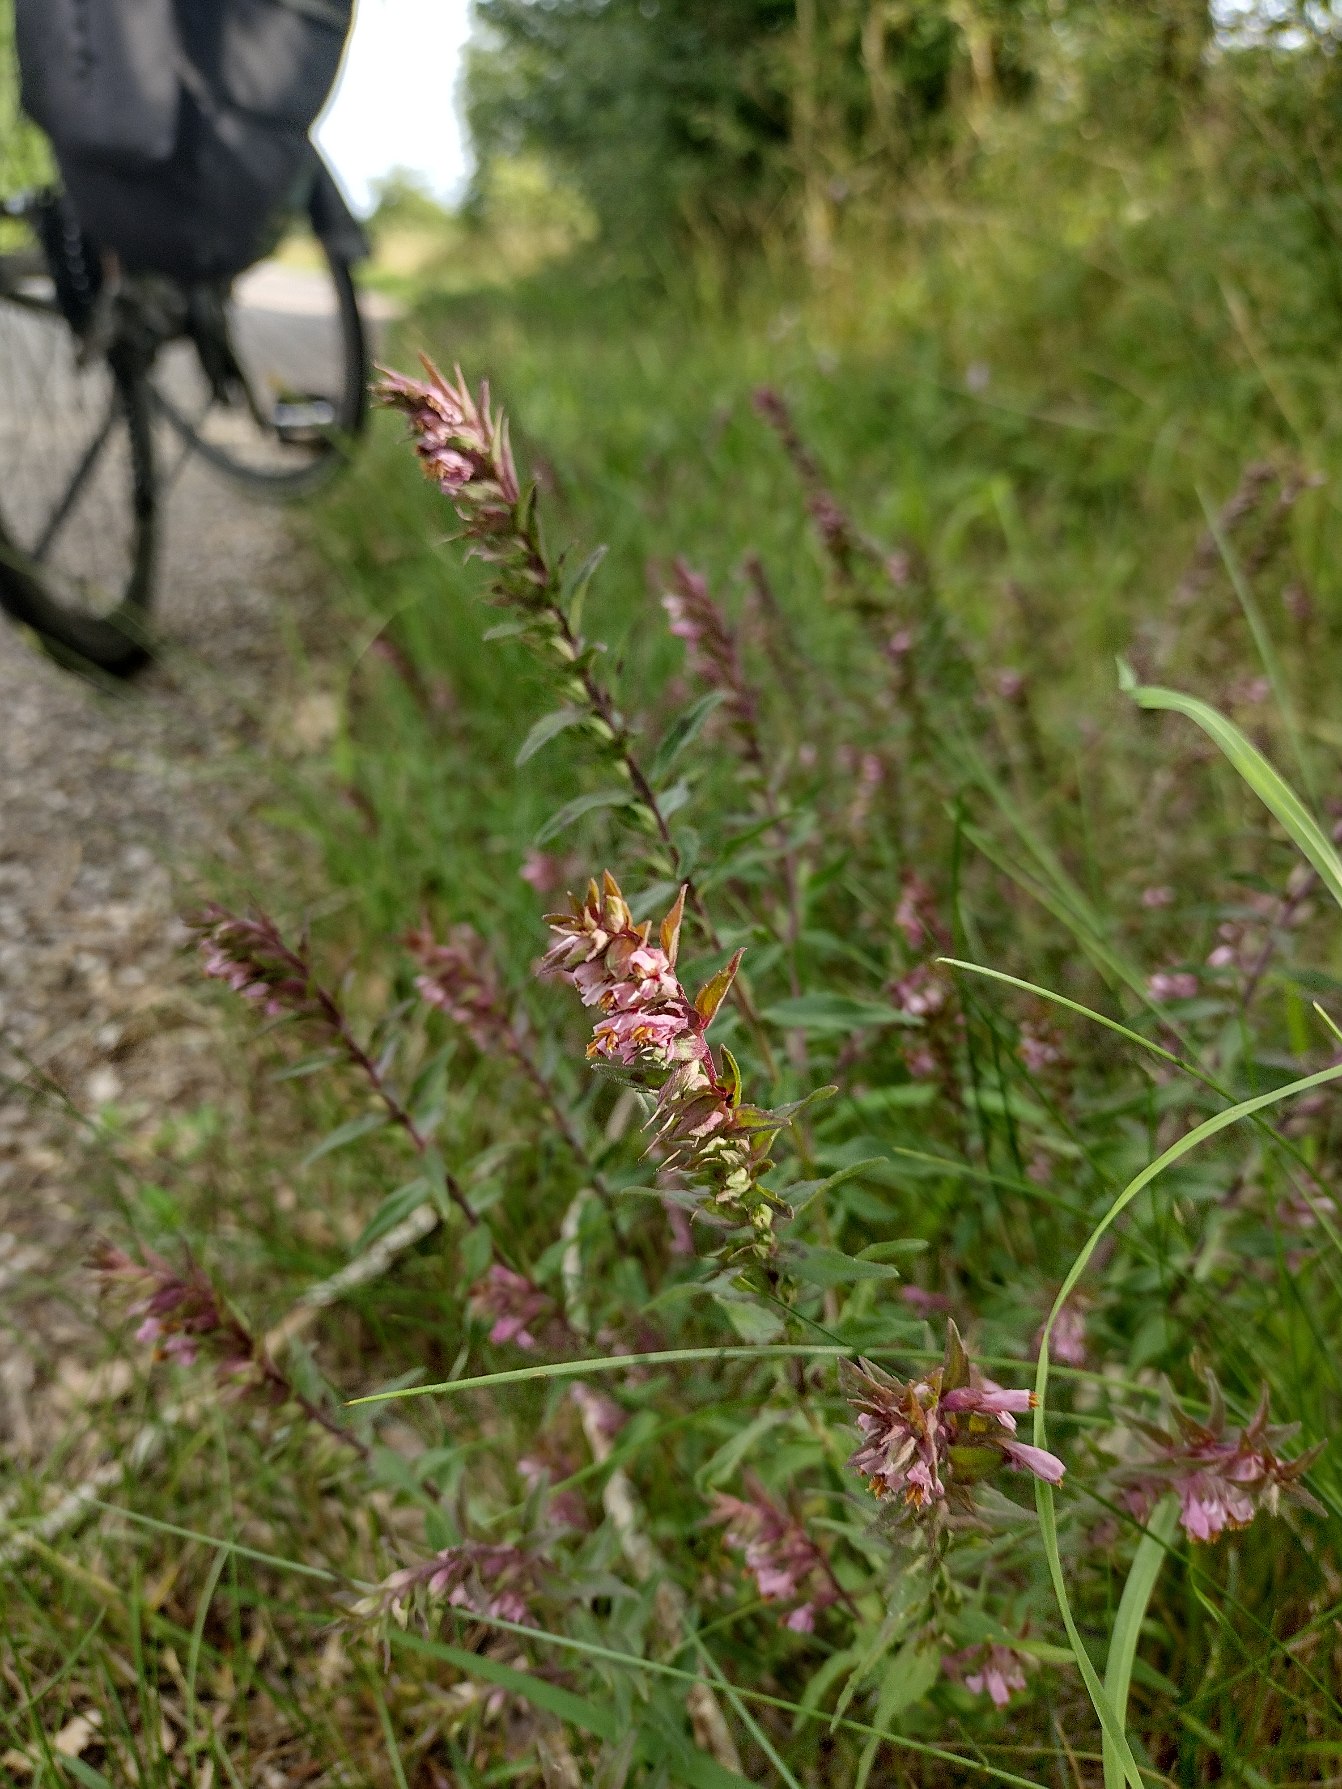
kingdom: Plantae
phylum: Tracheophyta
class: Magnoliopsida
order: Lamiales
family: Orobanchaceae
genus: Odontites
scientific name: Odontites vulgaris
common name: Høst-rødtop
